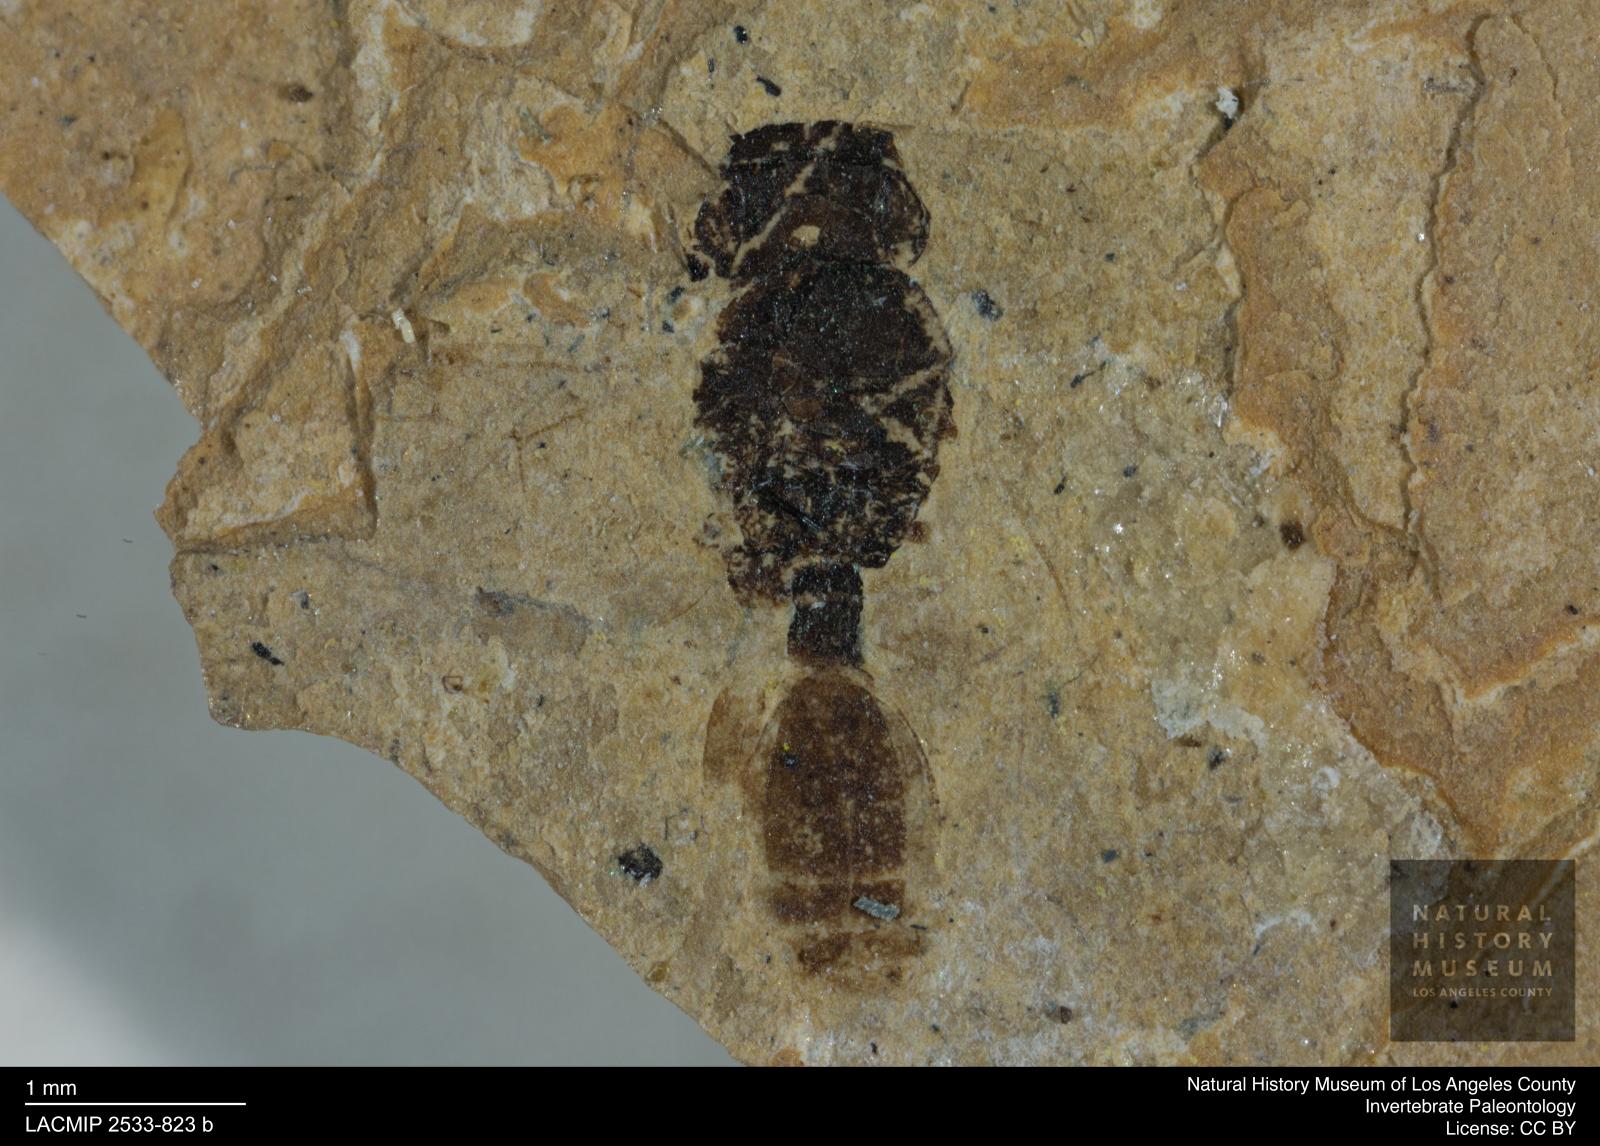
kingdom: Animalia
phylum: Arthropoda
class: Insecta
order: Hymenoptera
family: Heloridae
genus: Helorus
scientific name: Helorus festivus
